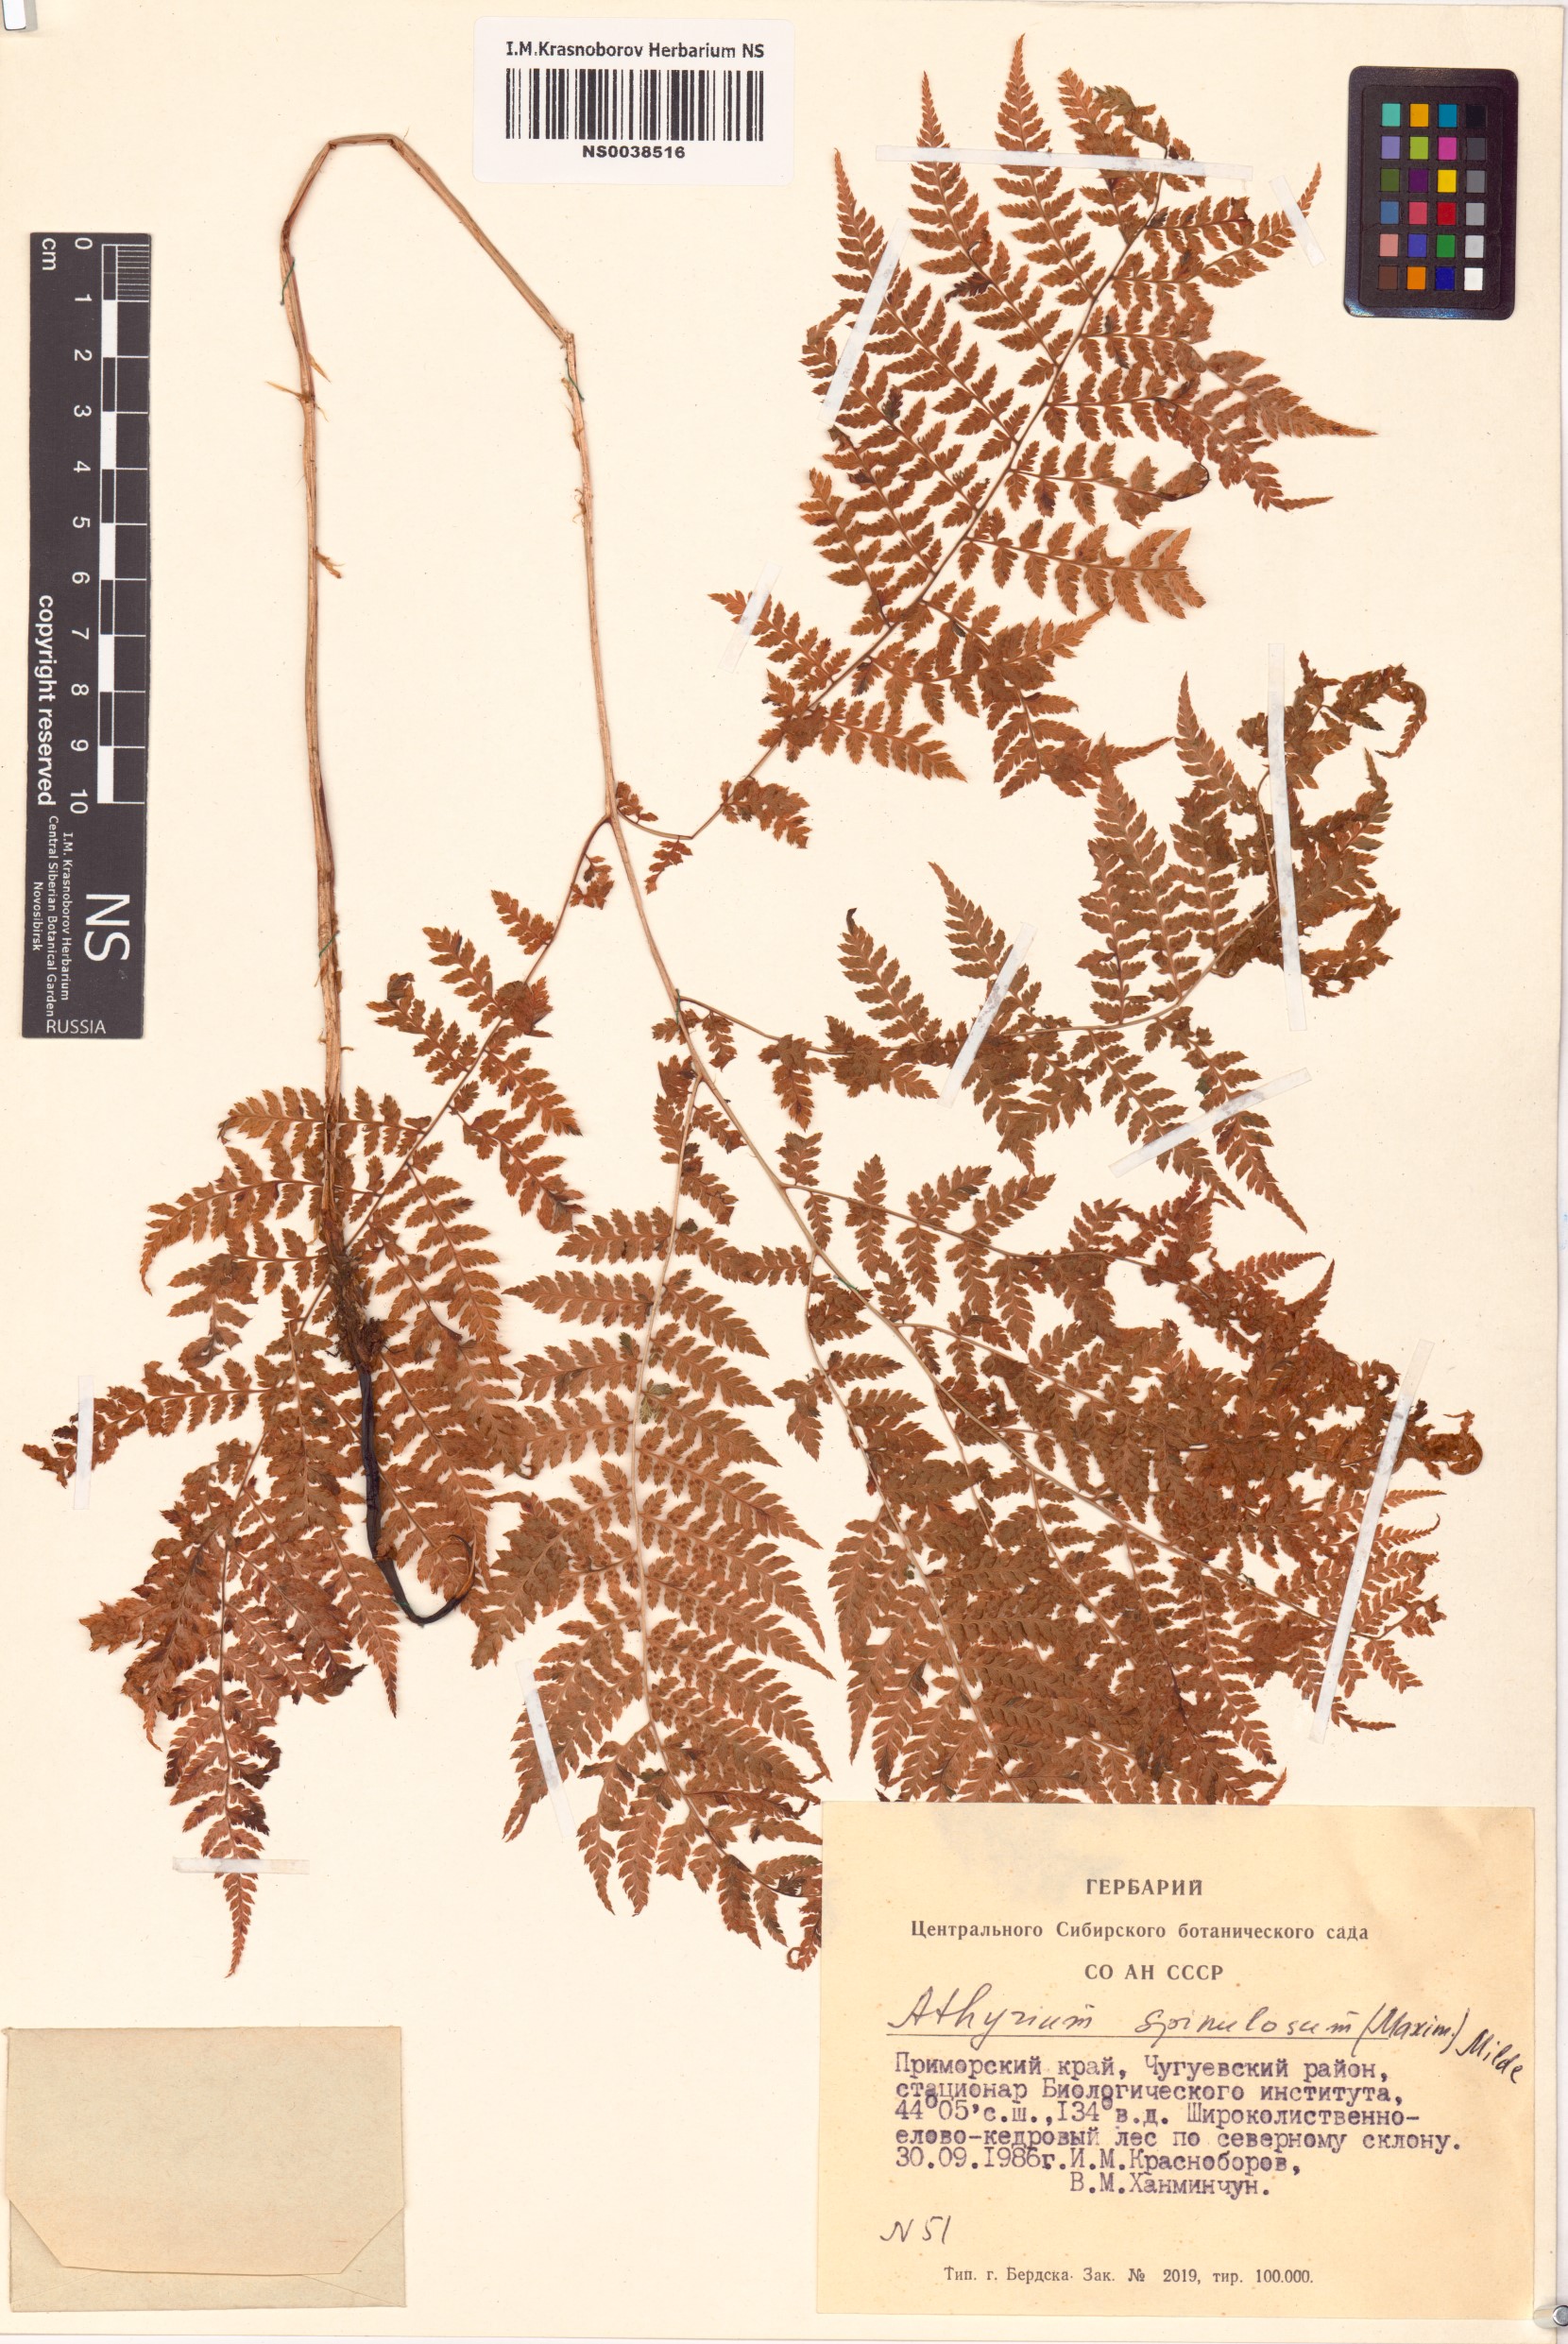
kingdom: Plantae
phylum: Tracheophyta
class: Polypodiopsida
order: Polypodiales
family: Athyriaceae
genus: Athyrium
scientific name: Athyrium spinulosum
